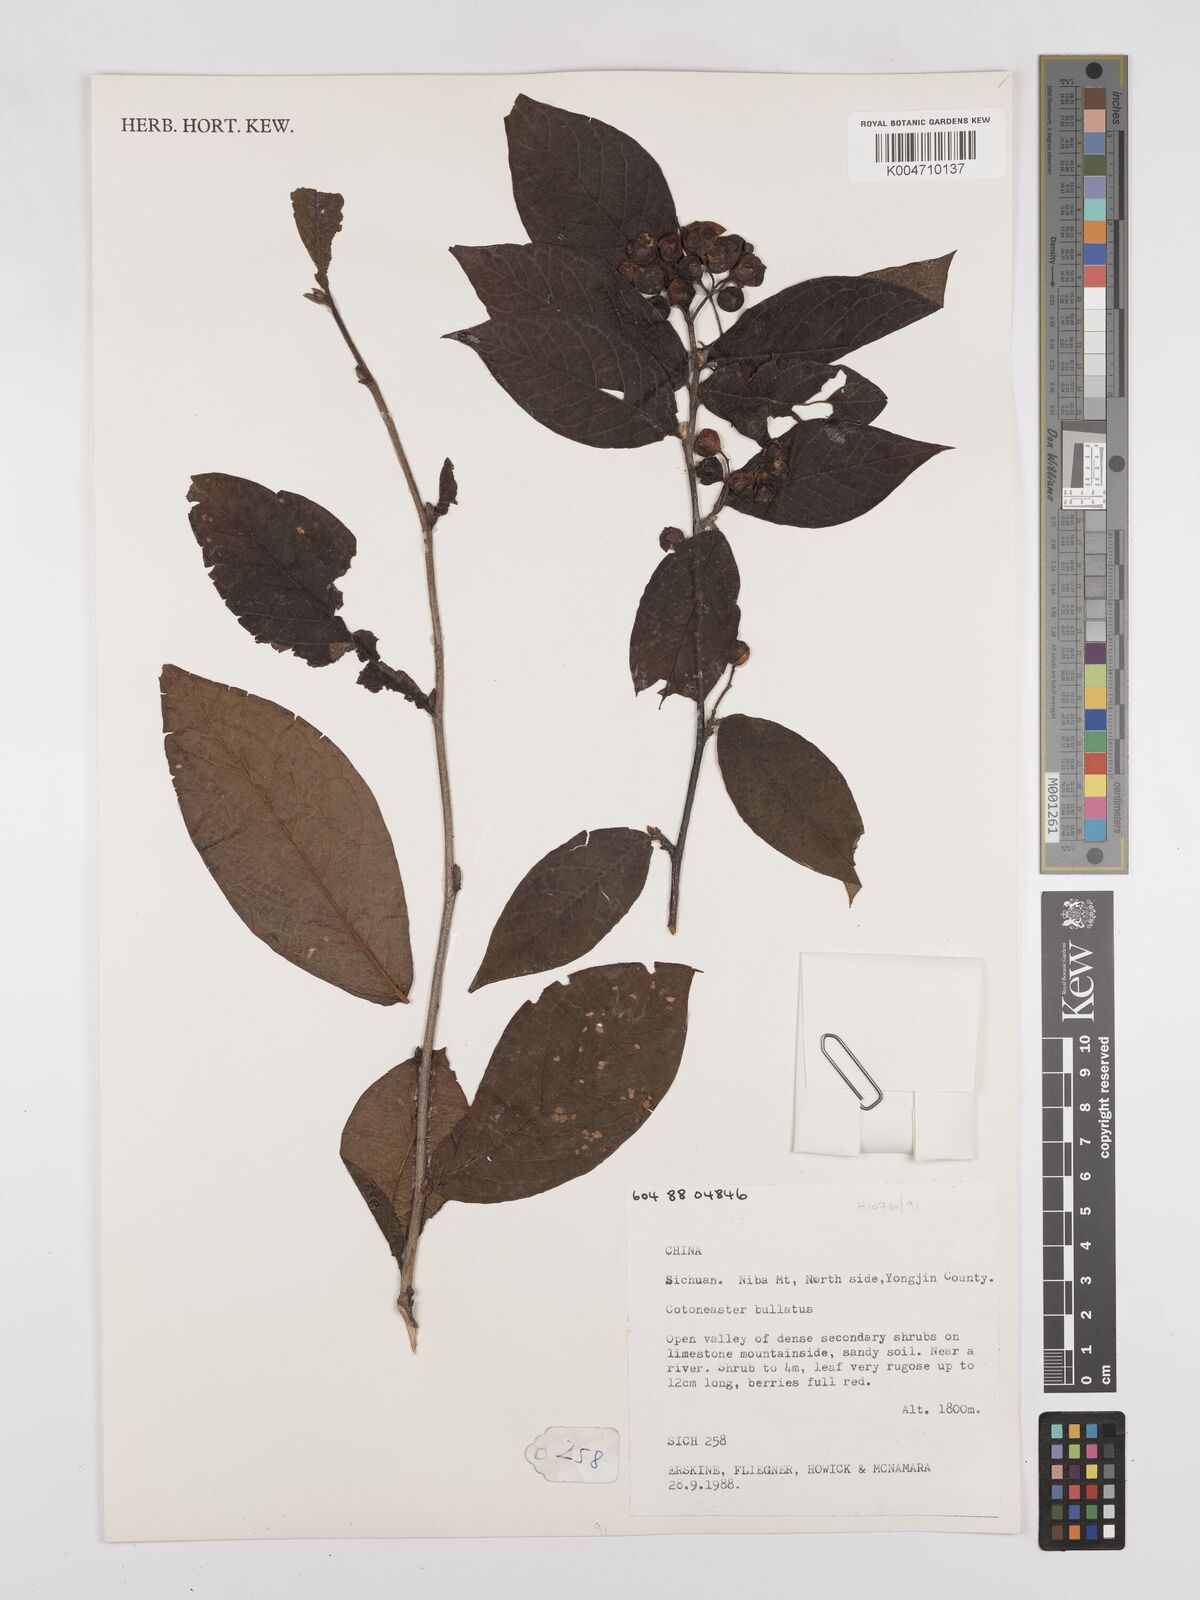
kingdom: Plantae
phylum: Tracheophyta
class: Magnoliopsida
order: Rosales
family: Rosaceae
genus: Cotoneaster
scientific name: Cotoneaster bullatus
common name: Hollyberry cotoneaster
